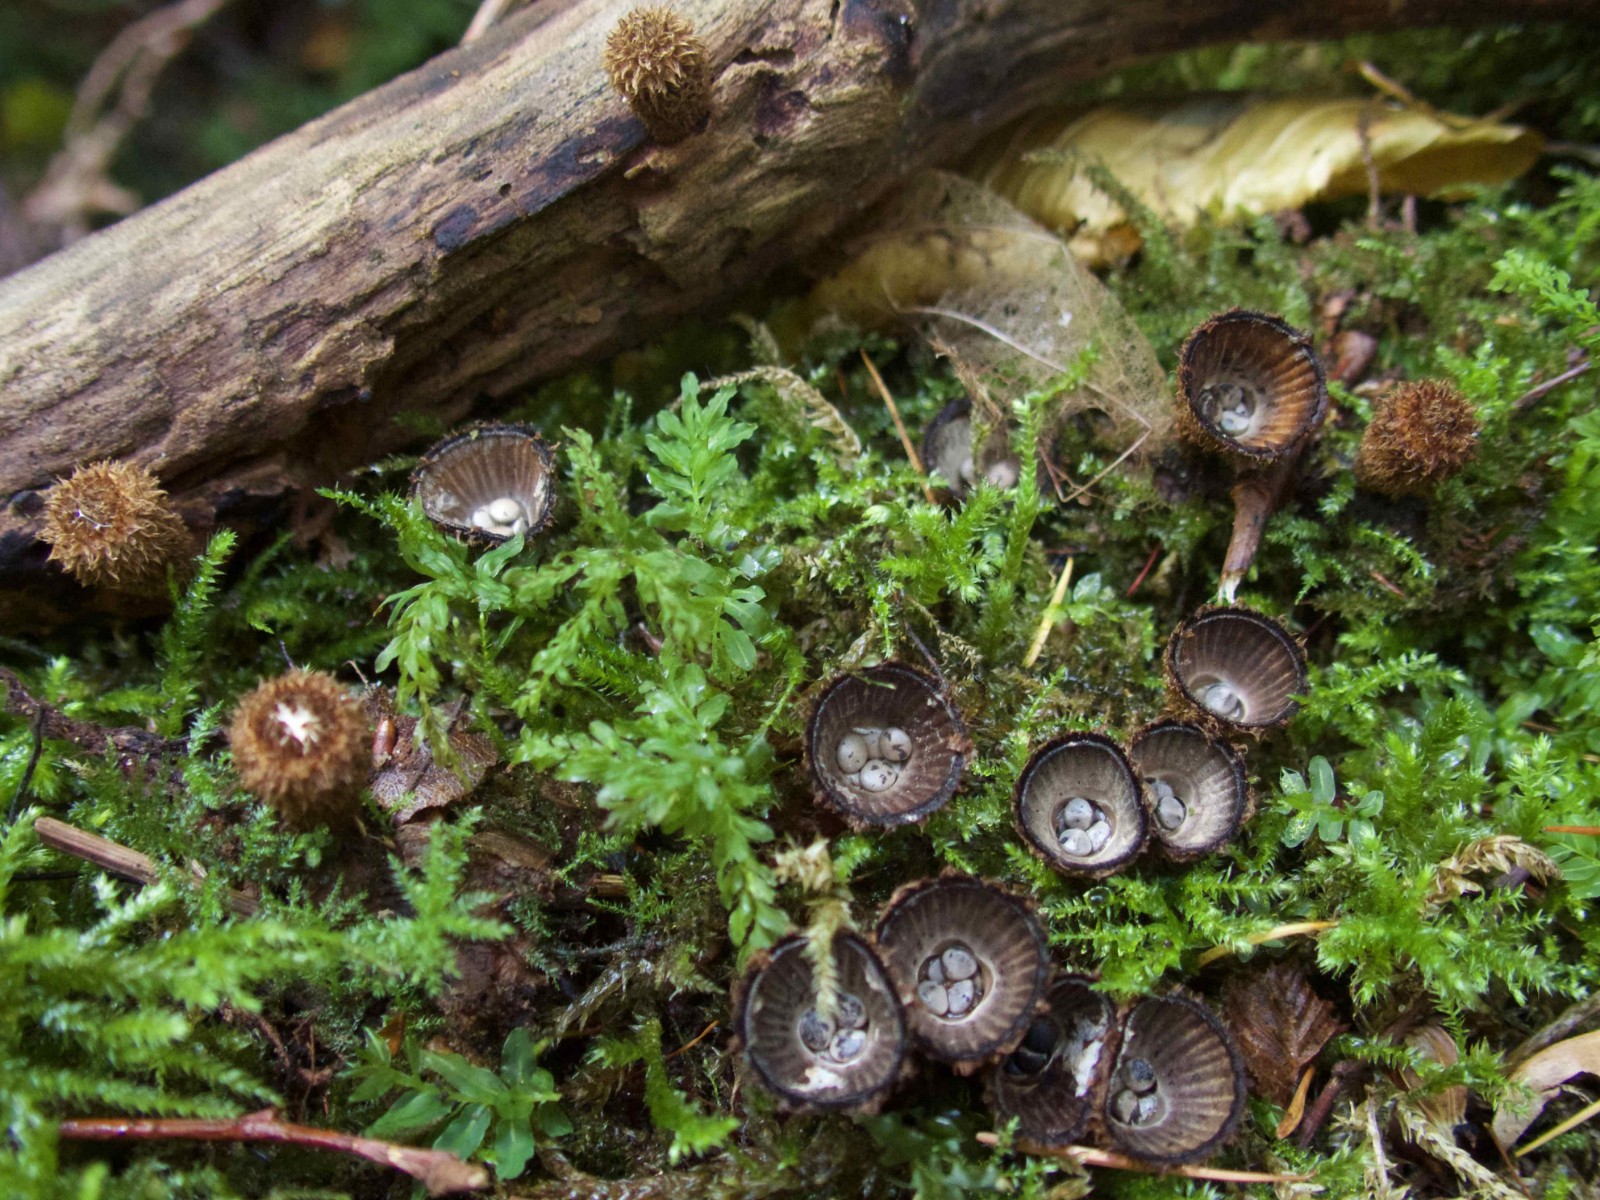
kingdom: Fungi
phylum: Basidiomycota
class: Agaricomycetes
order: Agaricales
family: Agaricaceae
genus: Cyathus
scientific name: Cyathus striatus
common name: stribet redesvamp
